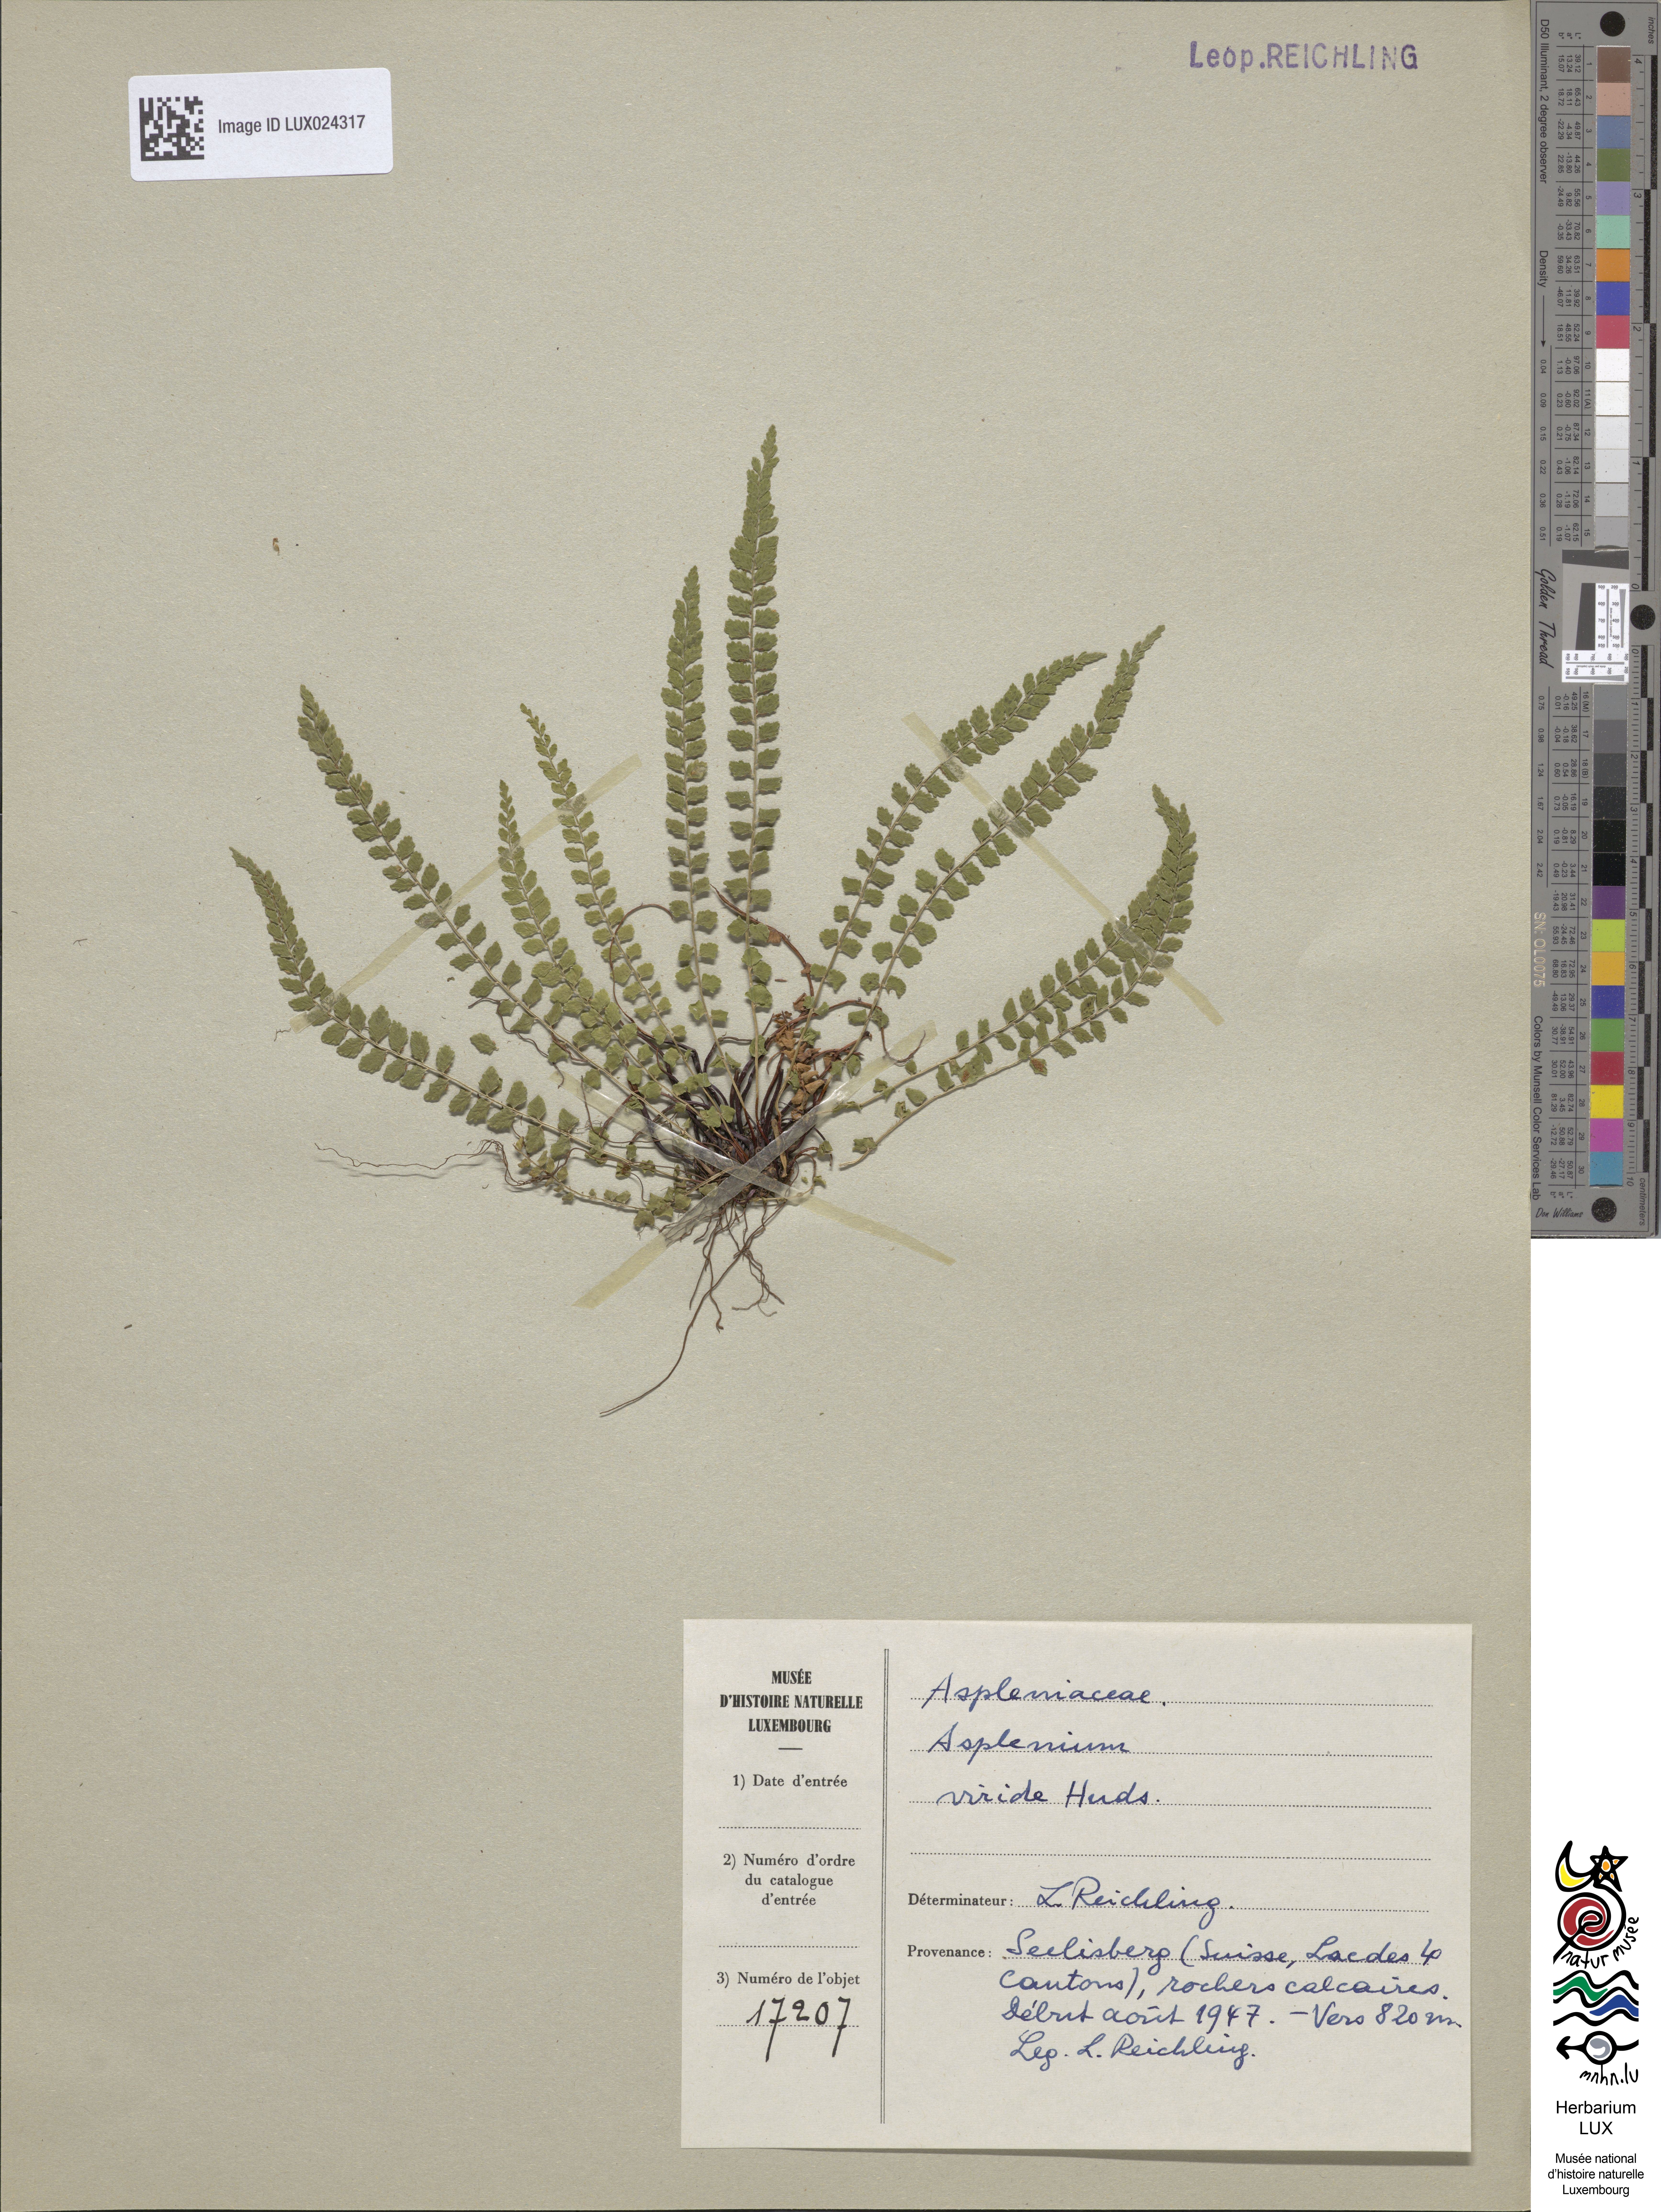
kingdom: Plantae
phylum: Tracheophyta
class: Polypodiopsida
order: Polypodiales
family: Aspleniaceae
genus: Asplenium
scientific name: Asplenium viride
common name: Green spleenwort
